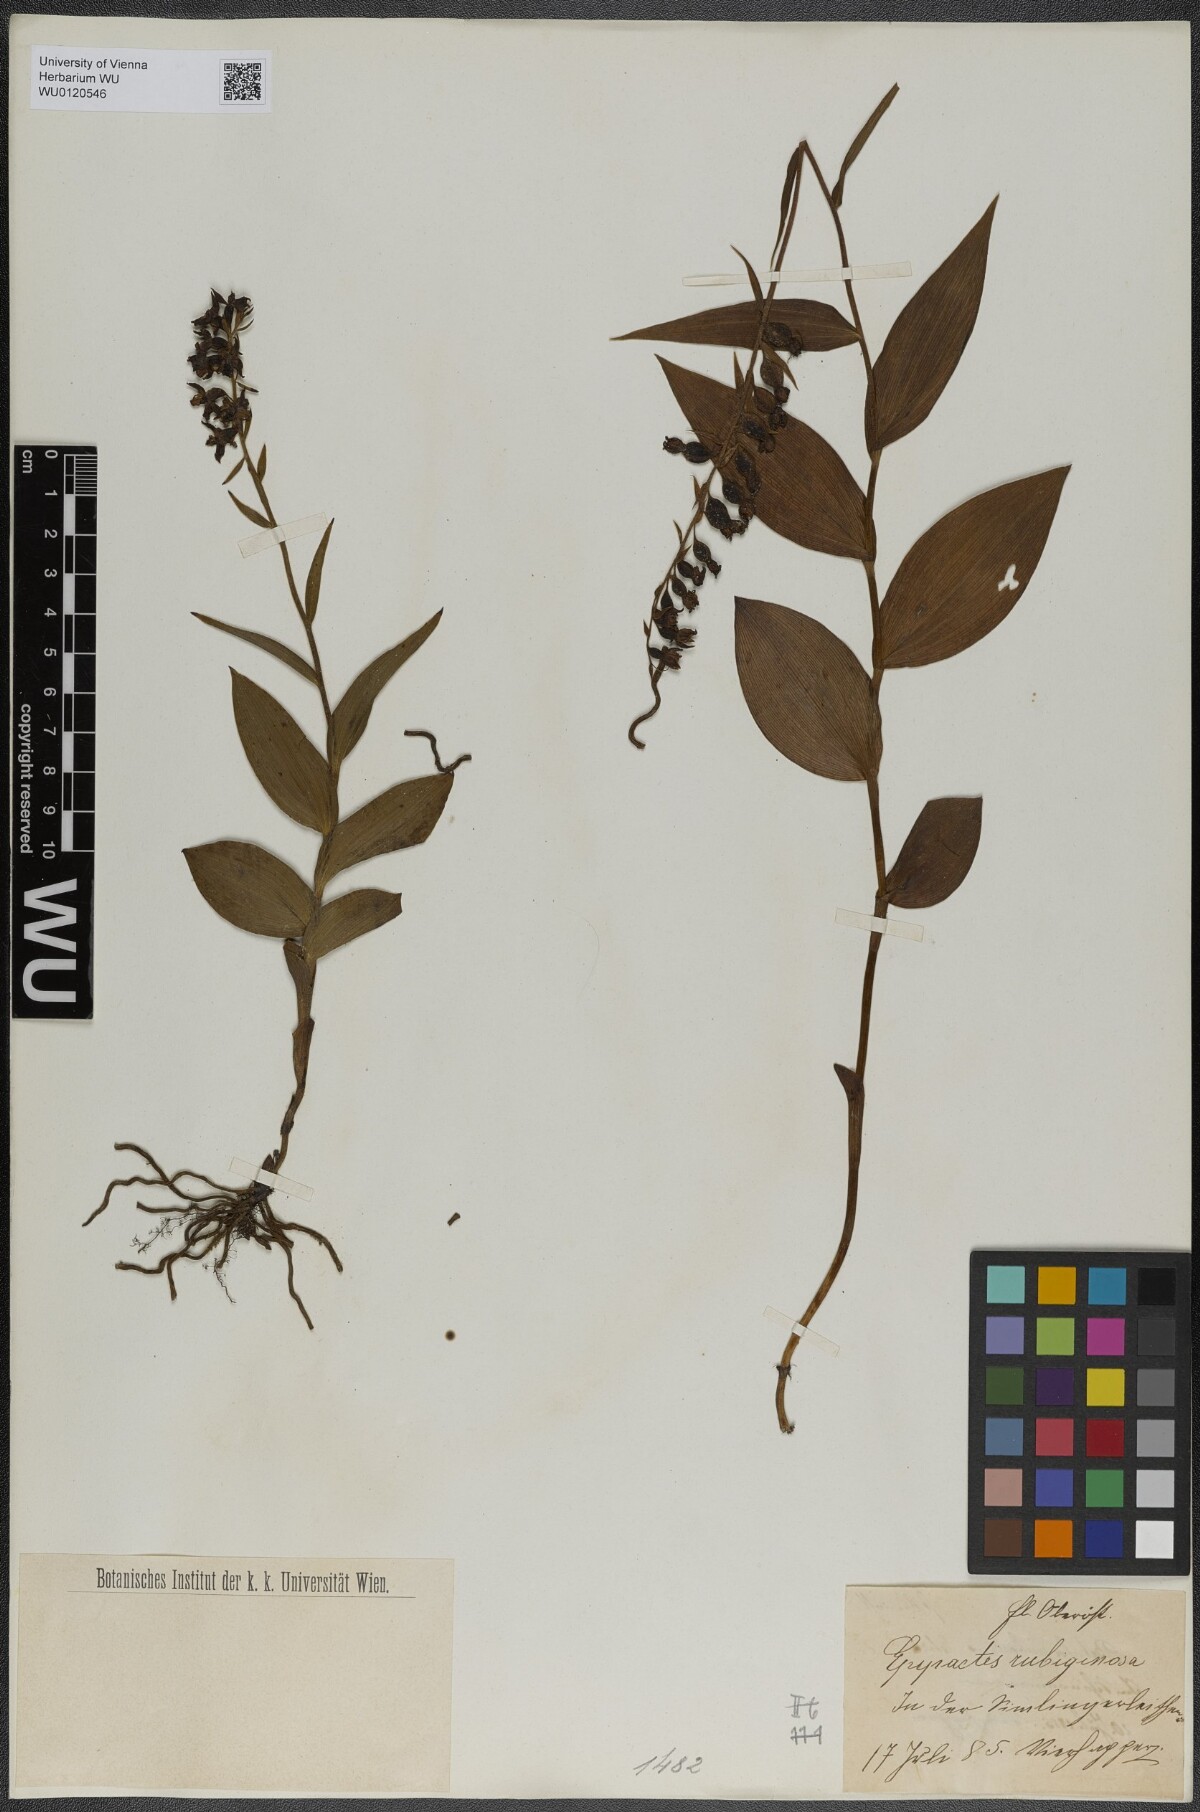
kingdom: Plantae
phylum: Tracheophyta
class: Liliopsida
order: Asparagales
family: Orchidaceae
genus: Epipactis
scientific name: Epipactis atrorubens
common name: Dark-red helleborine
